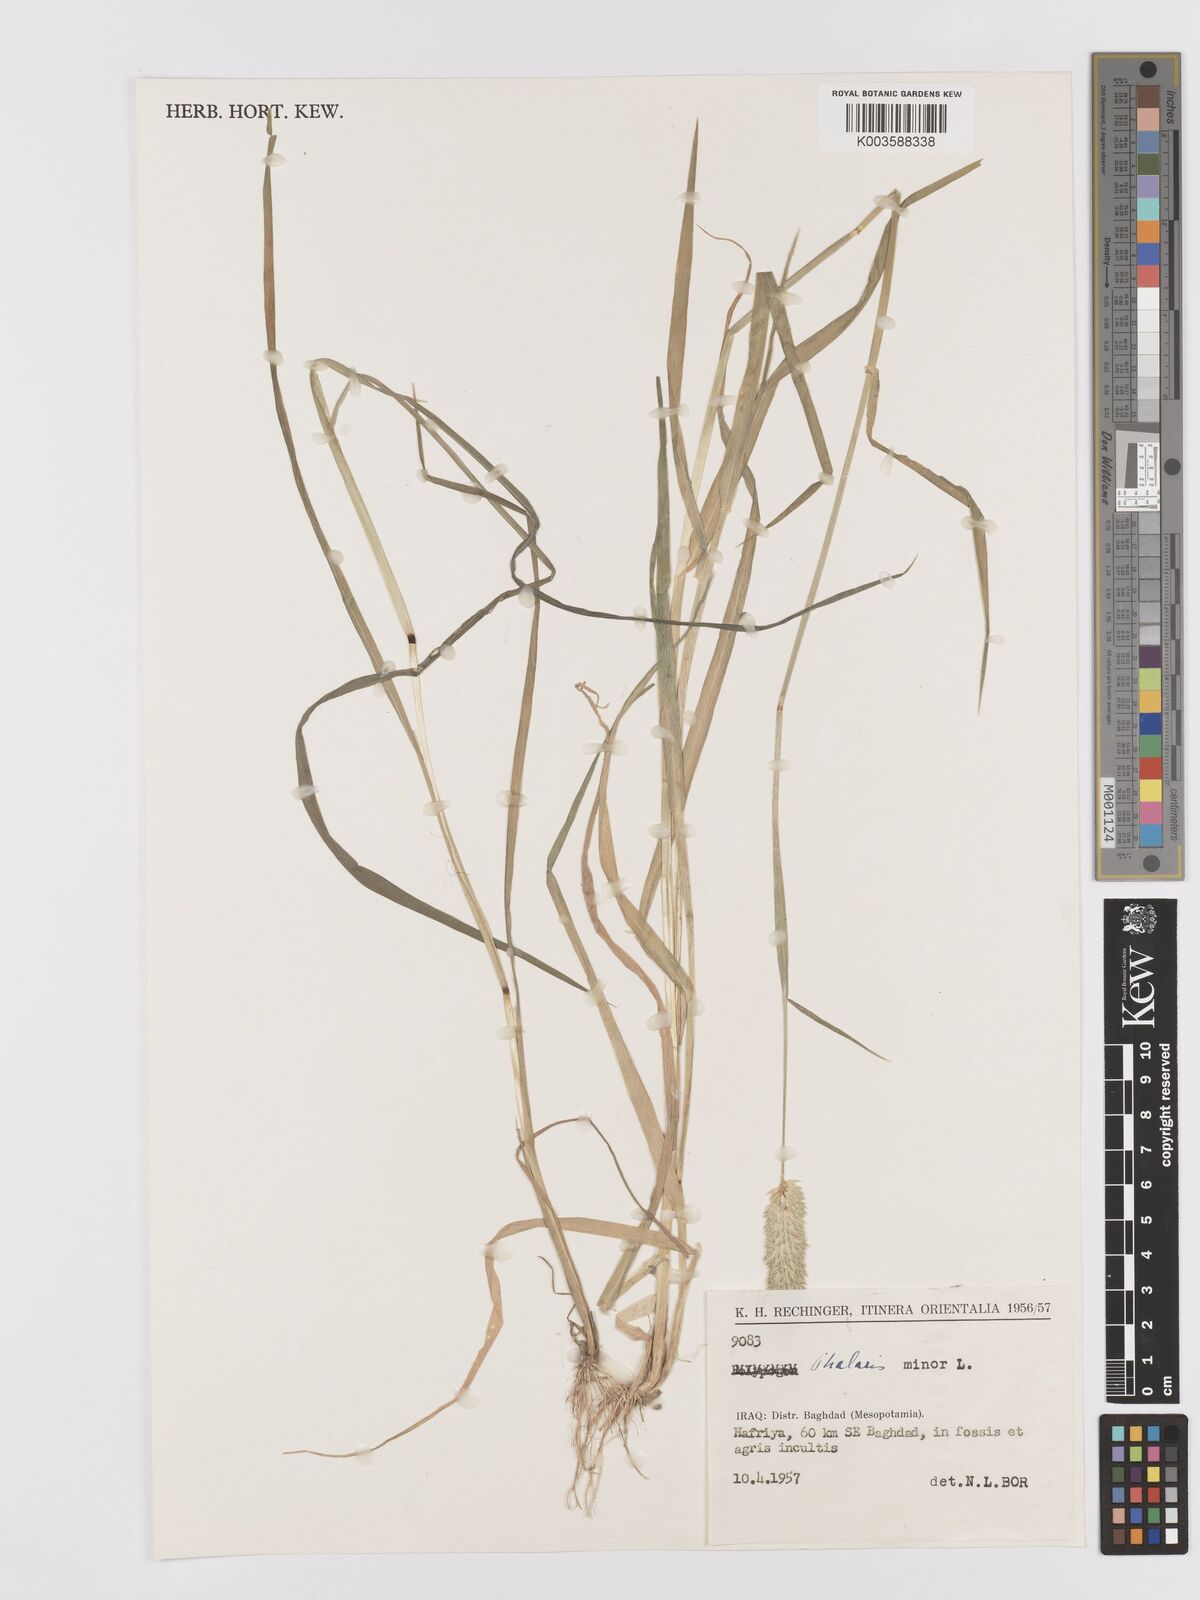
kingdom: Plantae
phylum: Tracheophyta
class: Liliopsida
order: Poales
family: Poaceae
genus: Phalaris
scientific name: Phalaris minor
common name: Littleseed canarygrass
